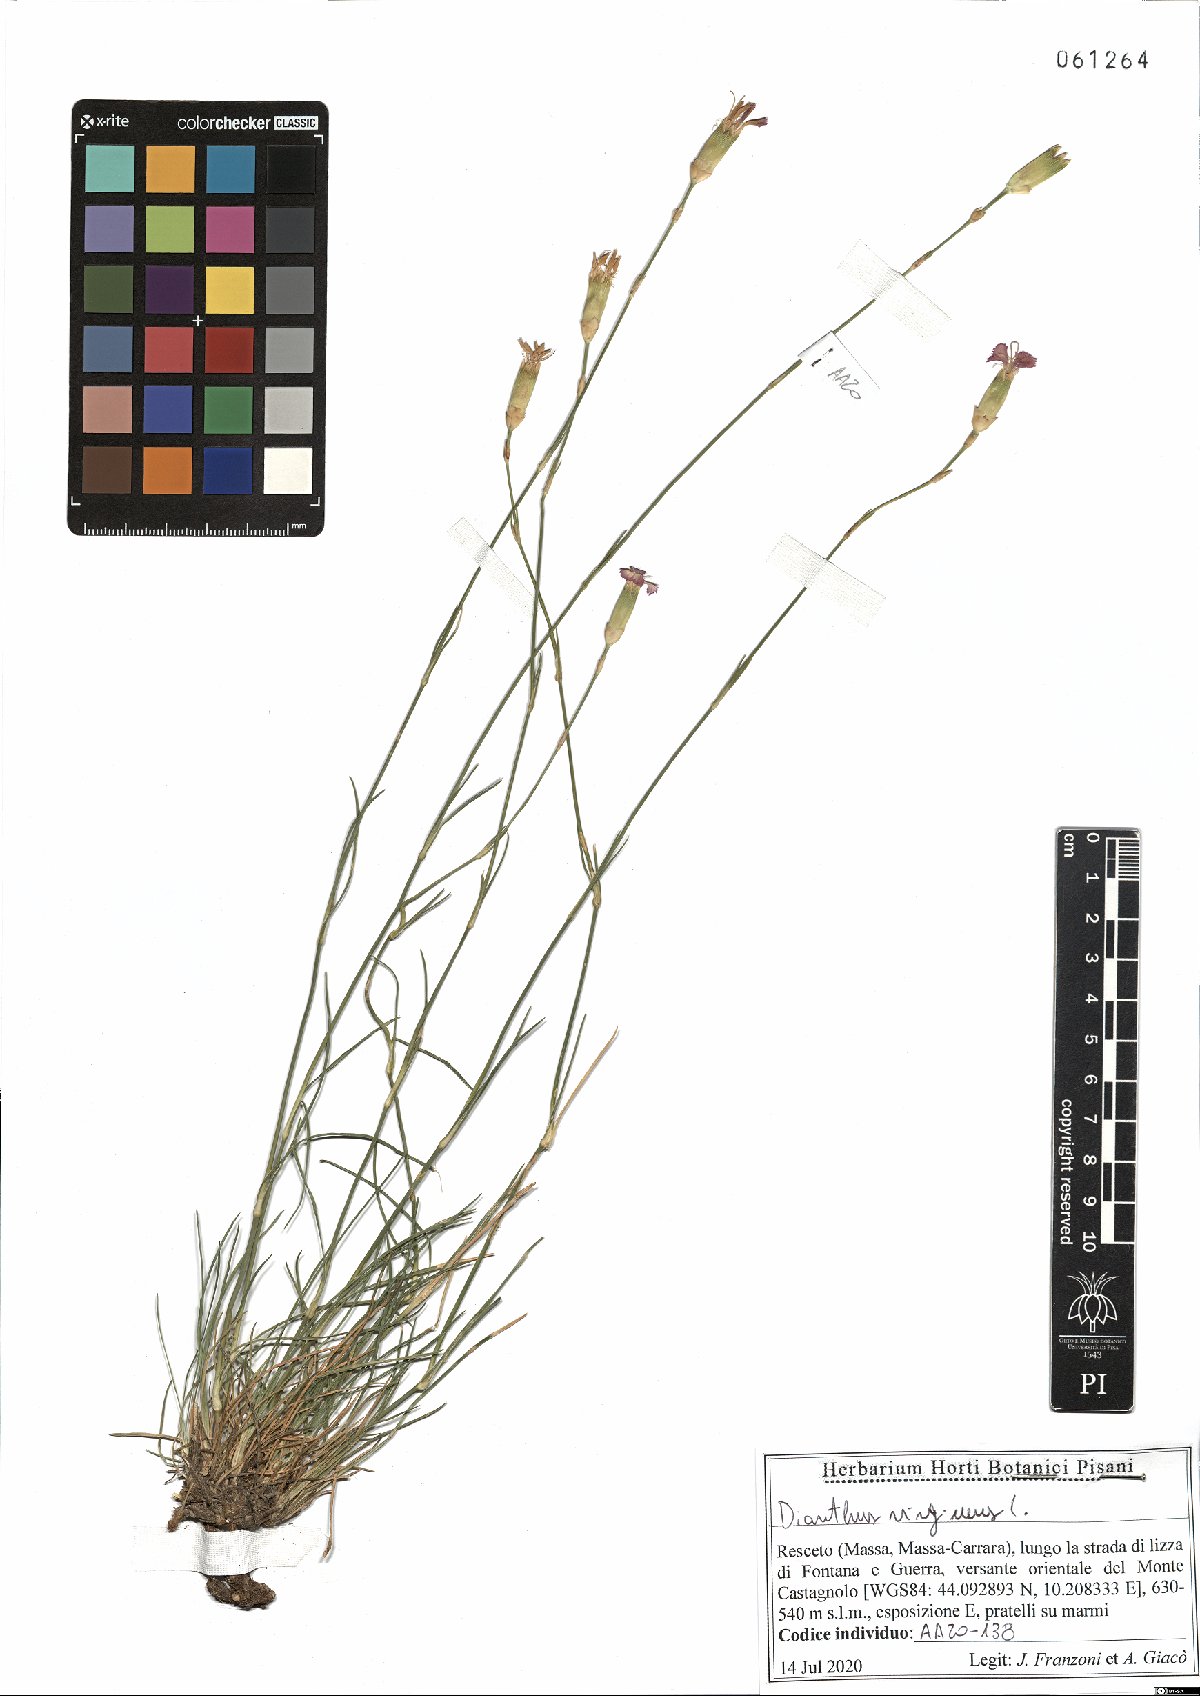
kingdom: Plantae
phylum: Tracheophyta
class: Magnoliopsida
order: Caryophyllales
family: Caryophyllaceae
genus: Dianthus
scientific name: Dianthus virgineus
